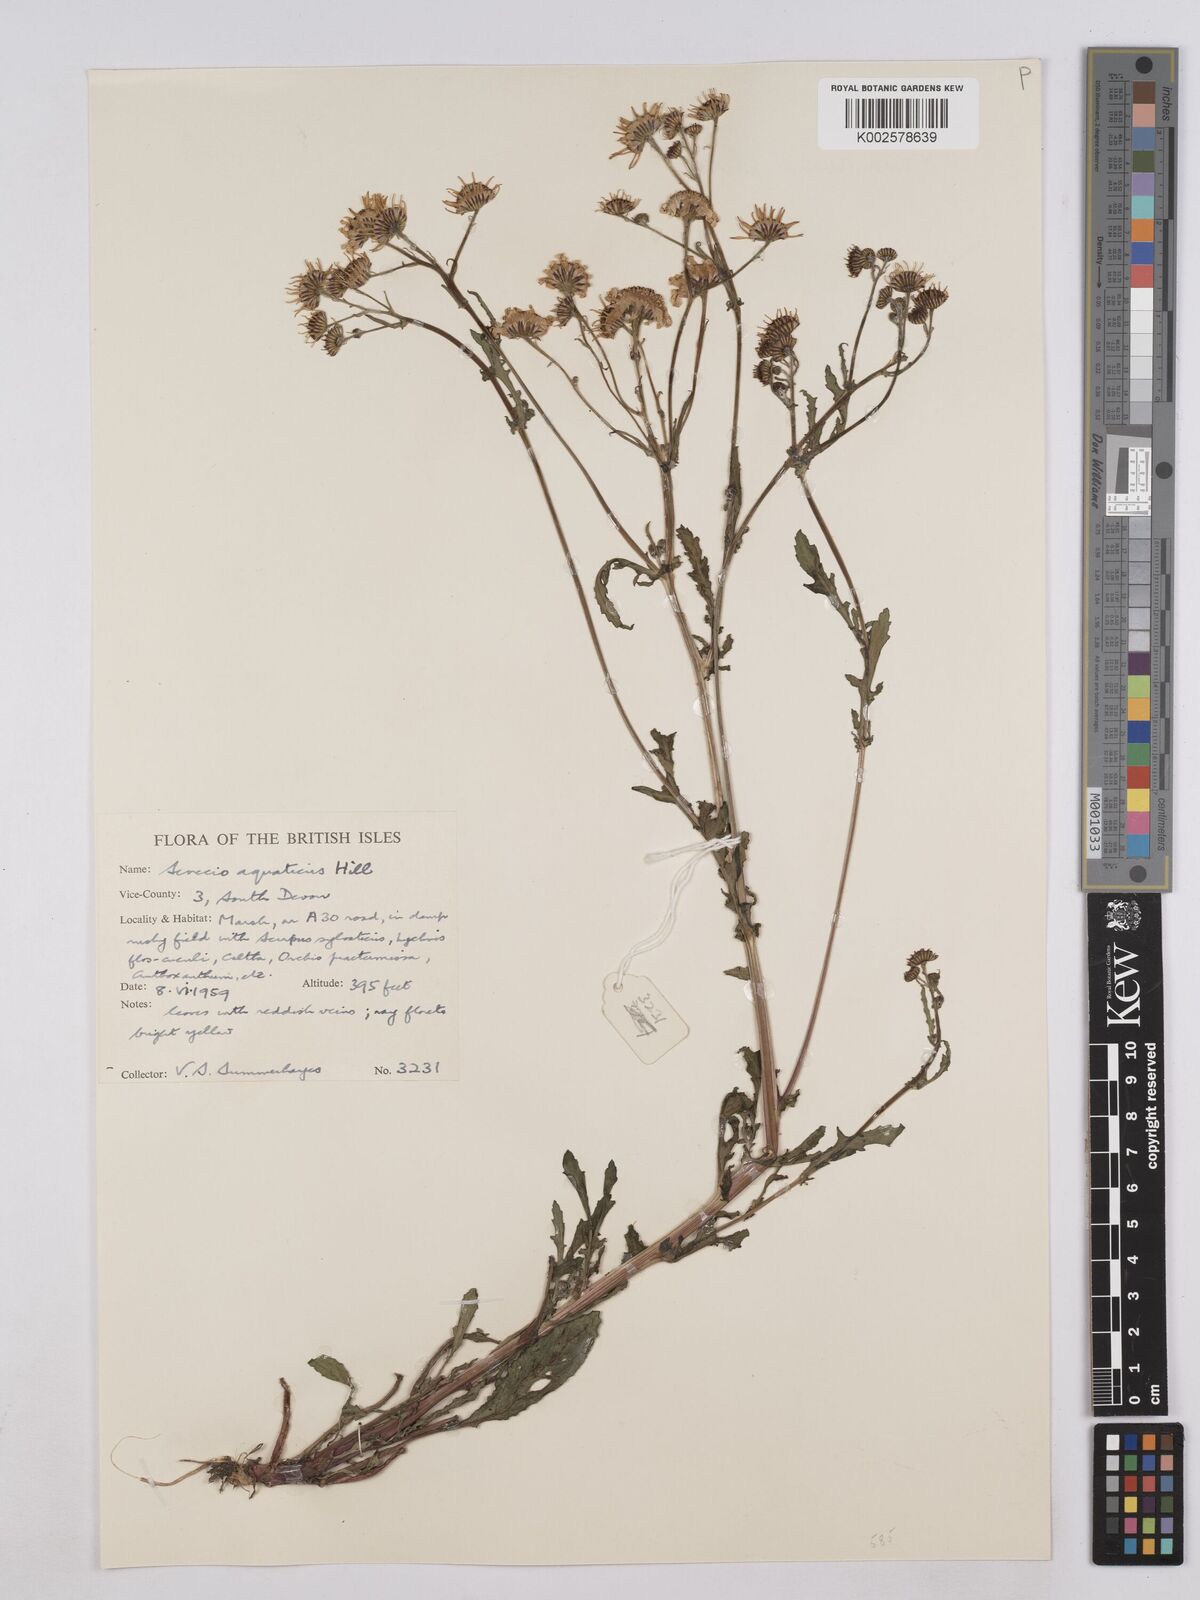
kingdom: Plantae
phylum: Tracheophyta
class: Magnoliopsida
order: Asterales
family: Asteraceae
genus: Jacobaea
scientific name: Jacobaea aquatica
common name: Water ragwort
